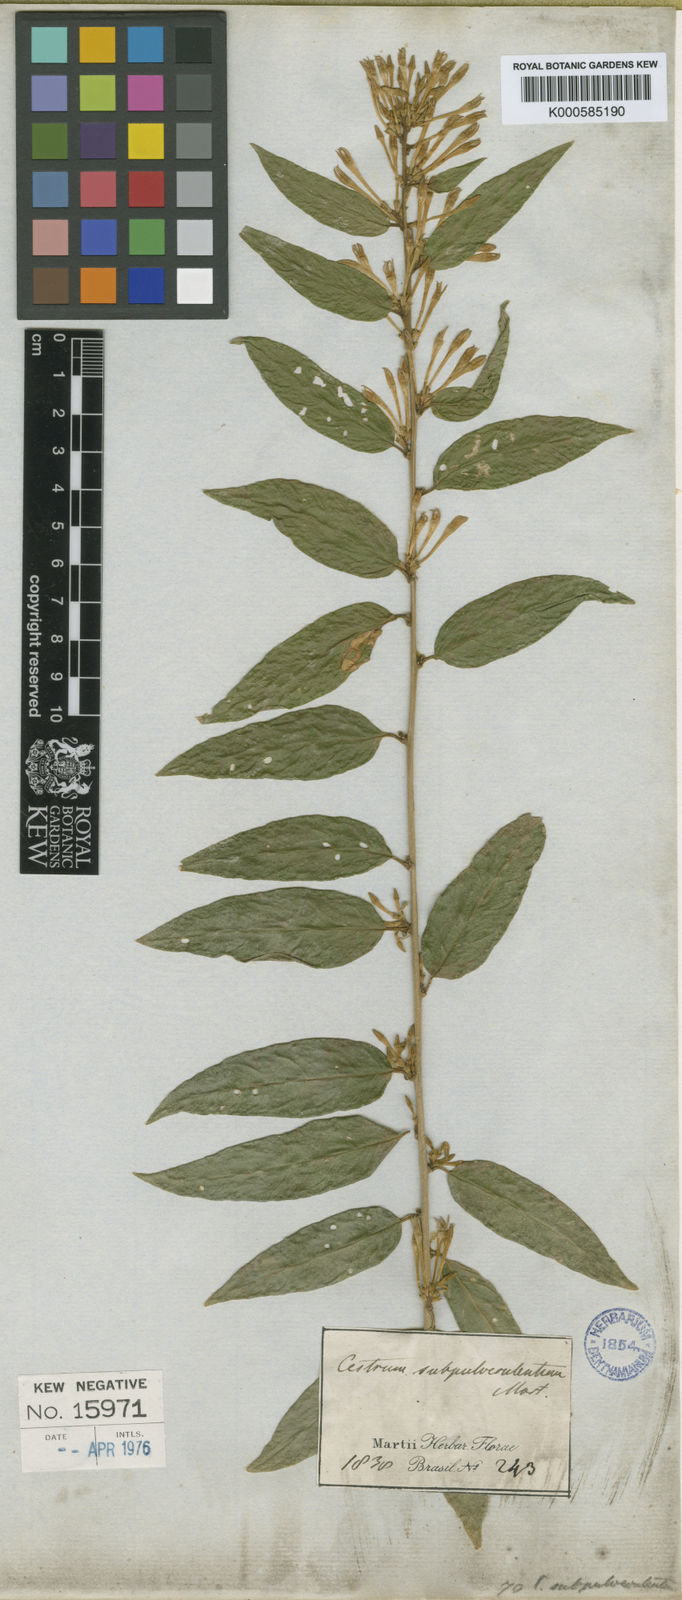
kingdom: Plantae
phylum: Tracheophyta
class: Magnoliopsida
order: Solanales
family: Solanaceae
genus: Cestrum
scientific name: Cestrum subpulverulentum
